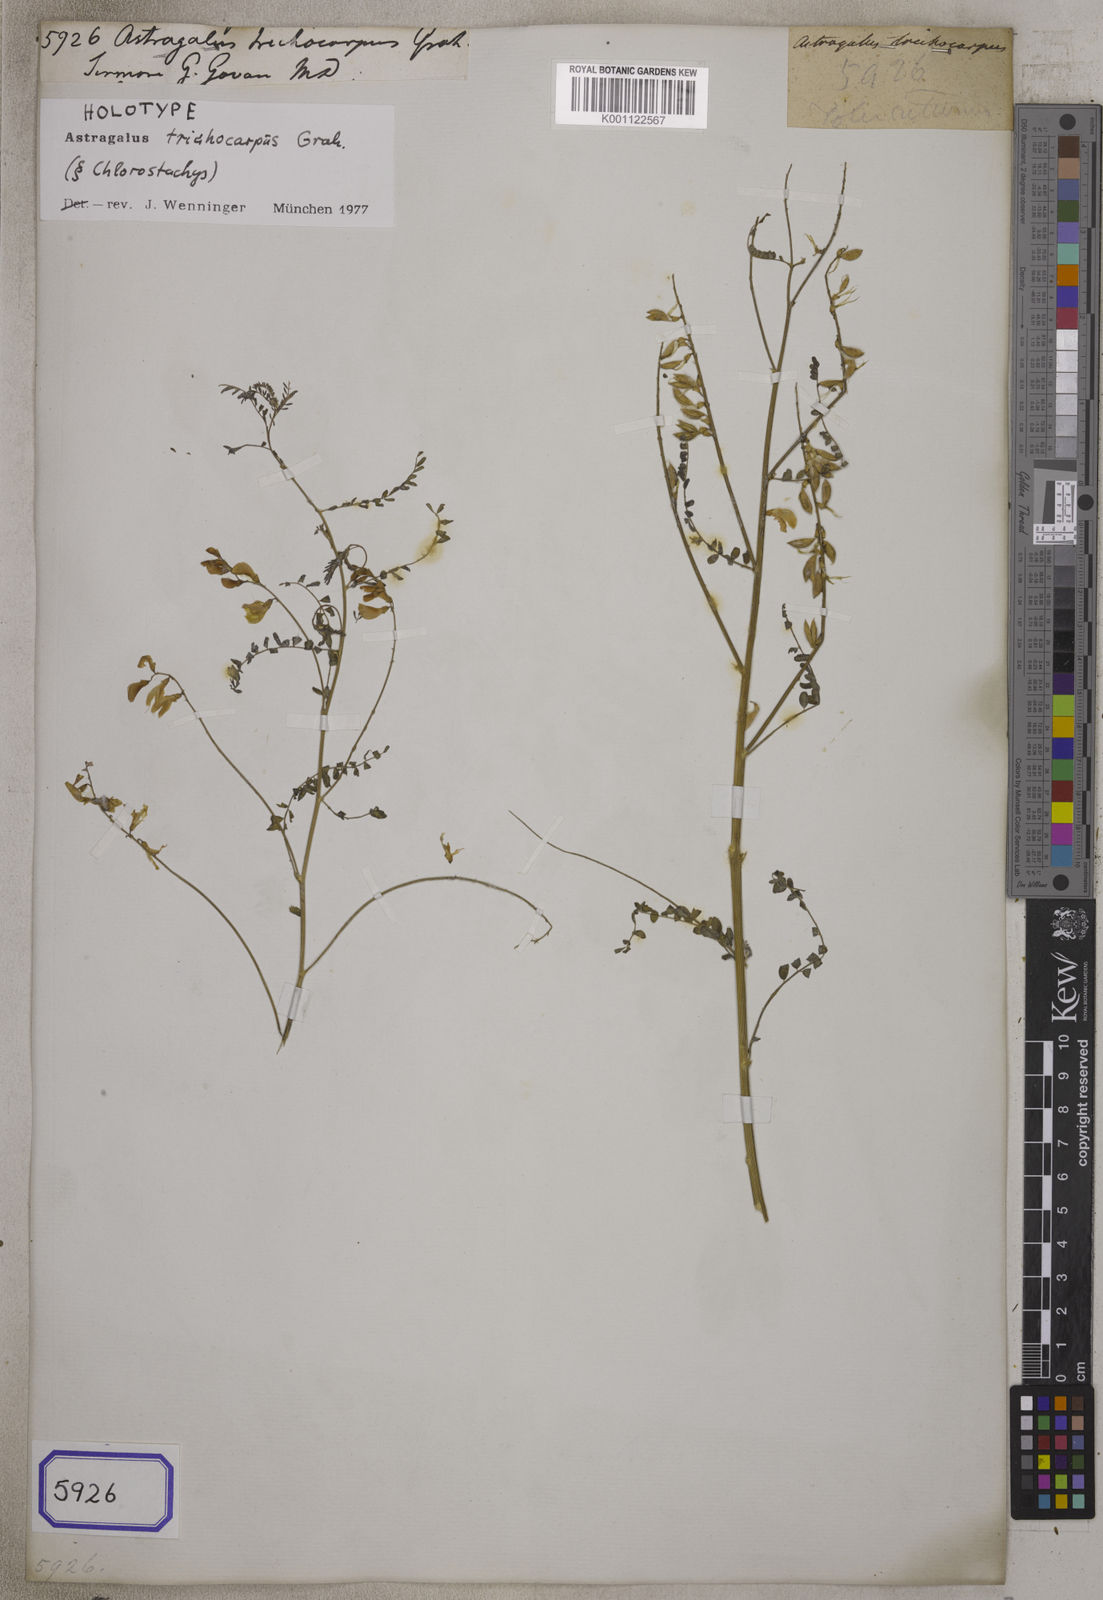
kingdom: Plantae
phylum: Tracheophyta
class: Magnoliopsida
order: Fabales
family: Fabaceae
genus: Astragalus
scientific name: Astragalus
